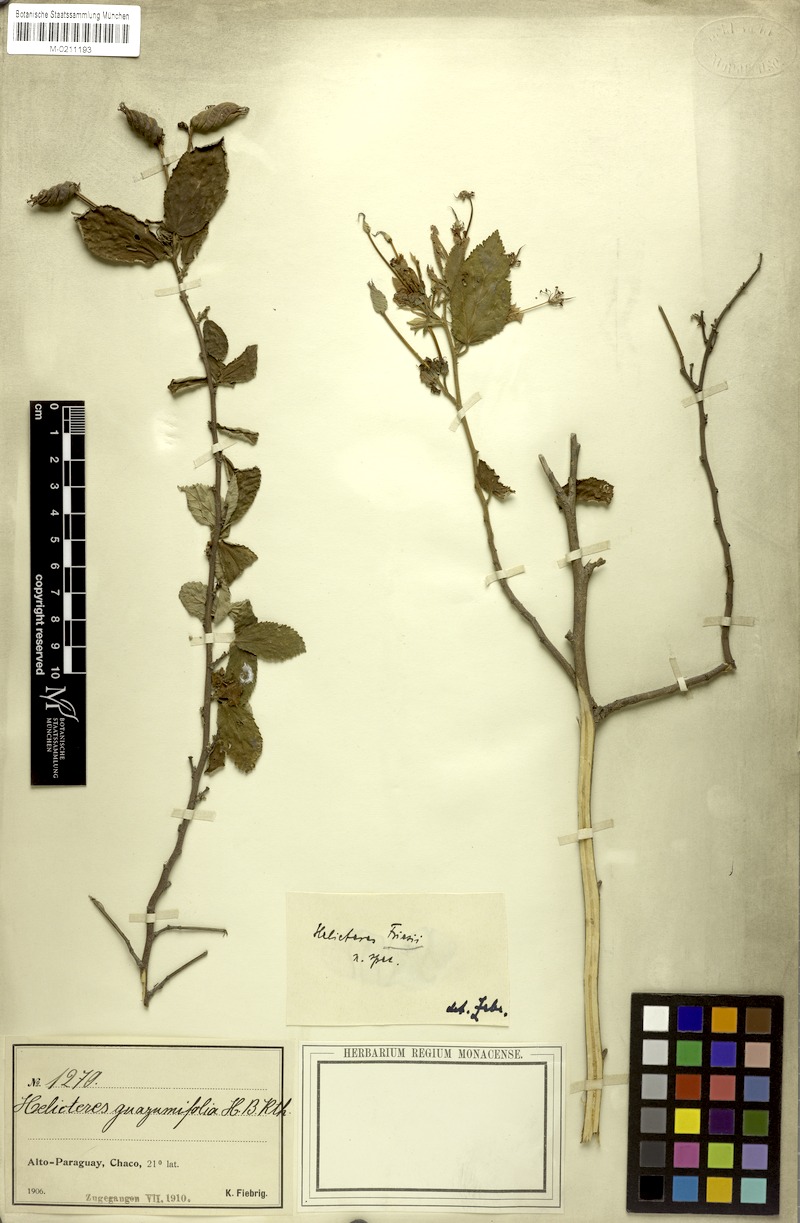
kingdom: Plantae
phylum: Tracheophyta
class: Magnoliopsida
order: Malvales
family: Malvaceae
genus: Helicteres
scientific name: Helicteres gardneriana
